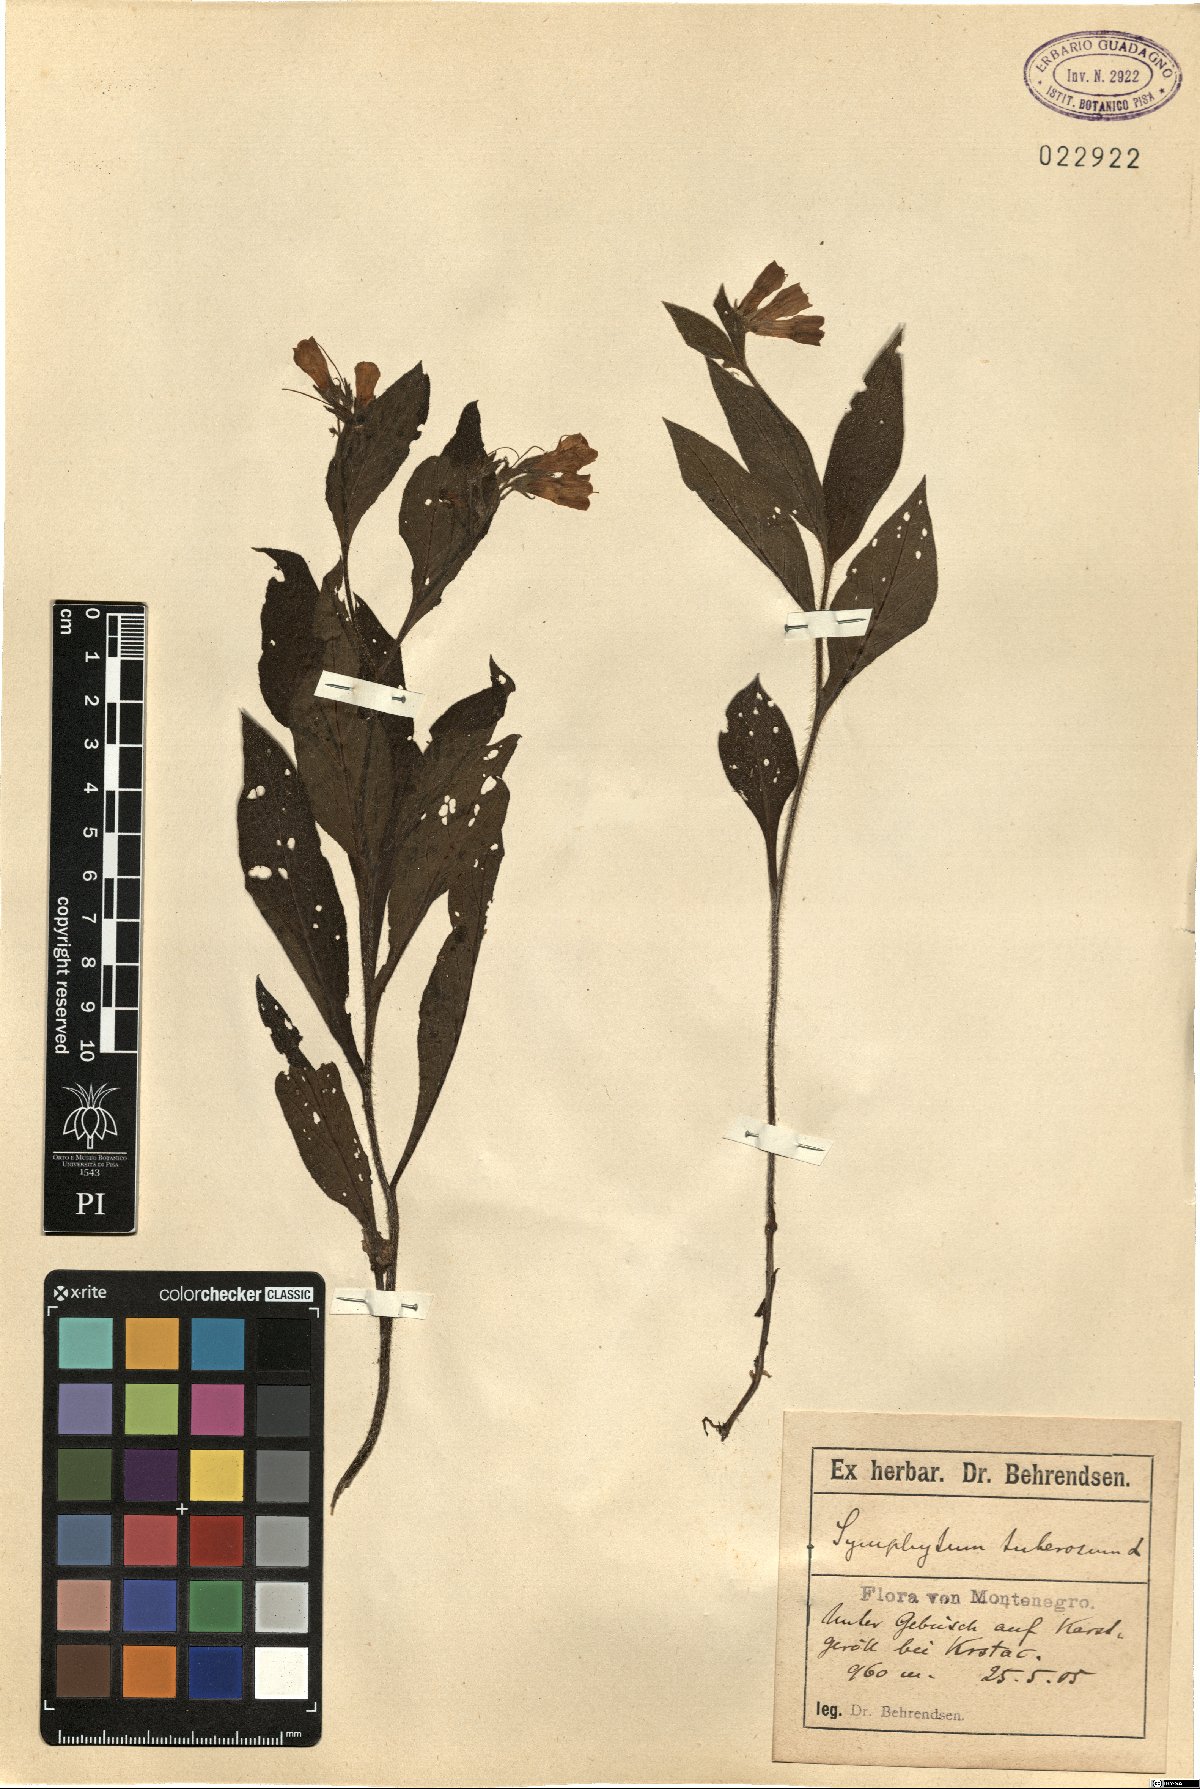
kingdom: Plantae
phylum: Tracheophyta
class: Magnoliopsida
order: Boraginales
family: Boraginaceae
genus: Symphytum
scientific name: Symphytum tuberosum
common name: Tuberous comfrey
